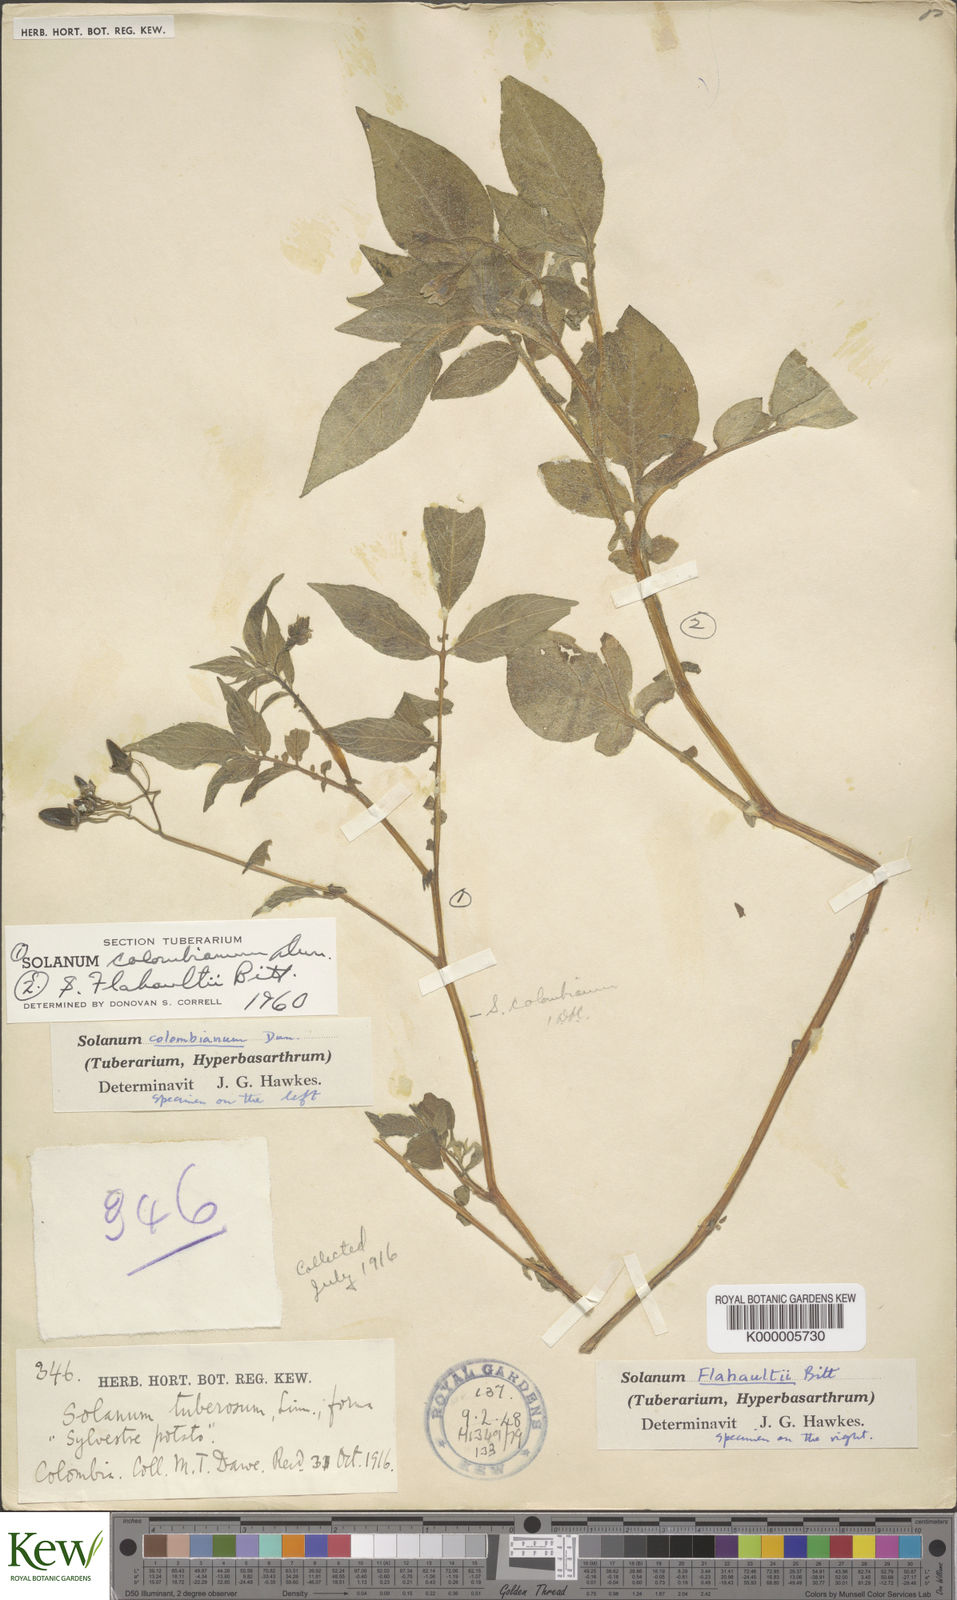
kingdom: Plantae
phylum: Tracheophyta
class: Magnoliopsida
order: Solanales
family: Solanaceae
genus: Solanum
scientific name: Solanum colombianum
